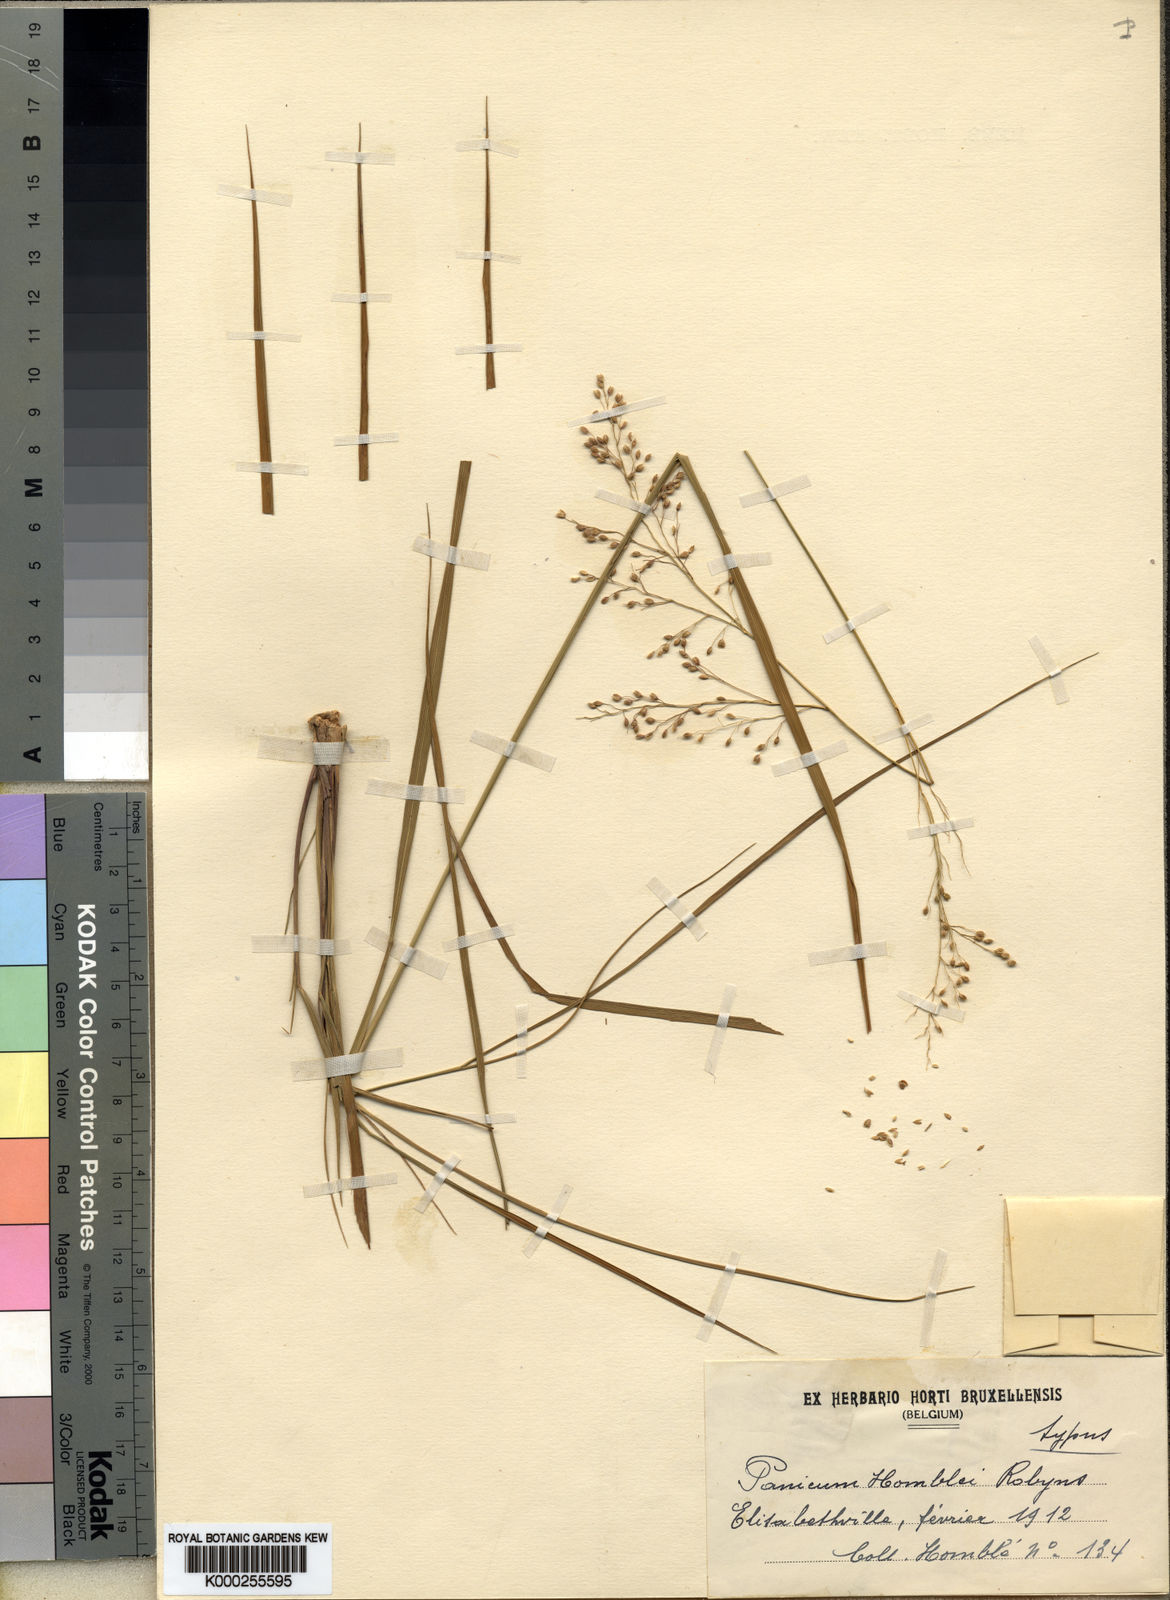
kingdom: Plantae
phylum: Tracheophyta
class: Liliopsida
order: Poales
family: Poaceae
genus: Panicum
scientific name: Panicum
